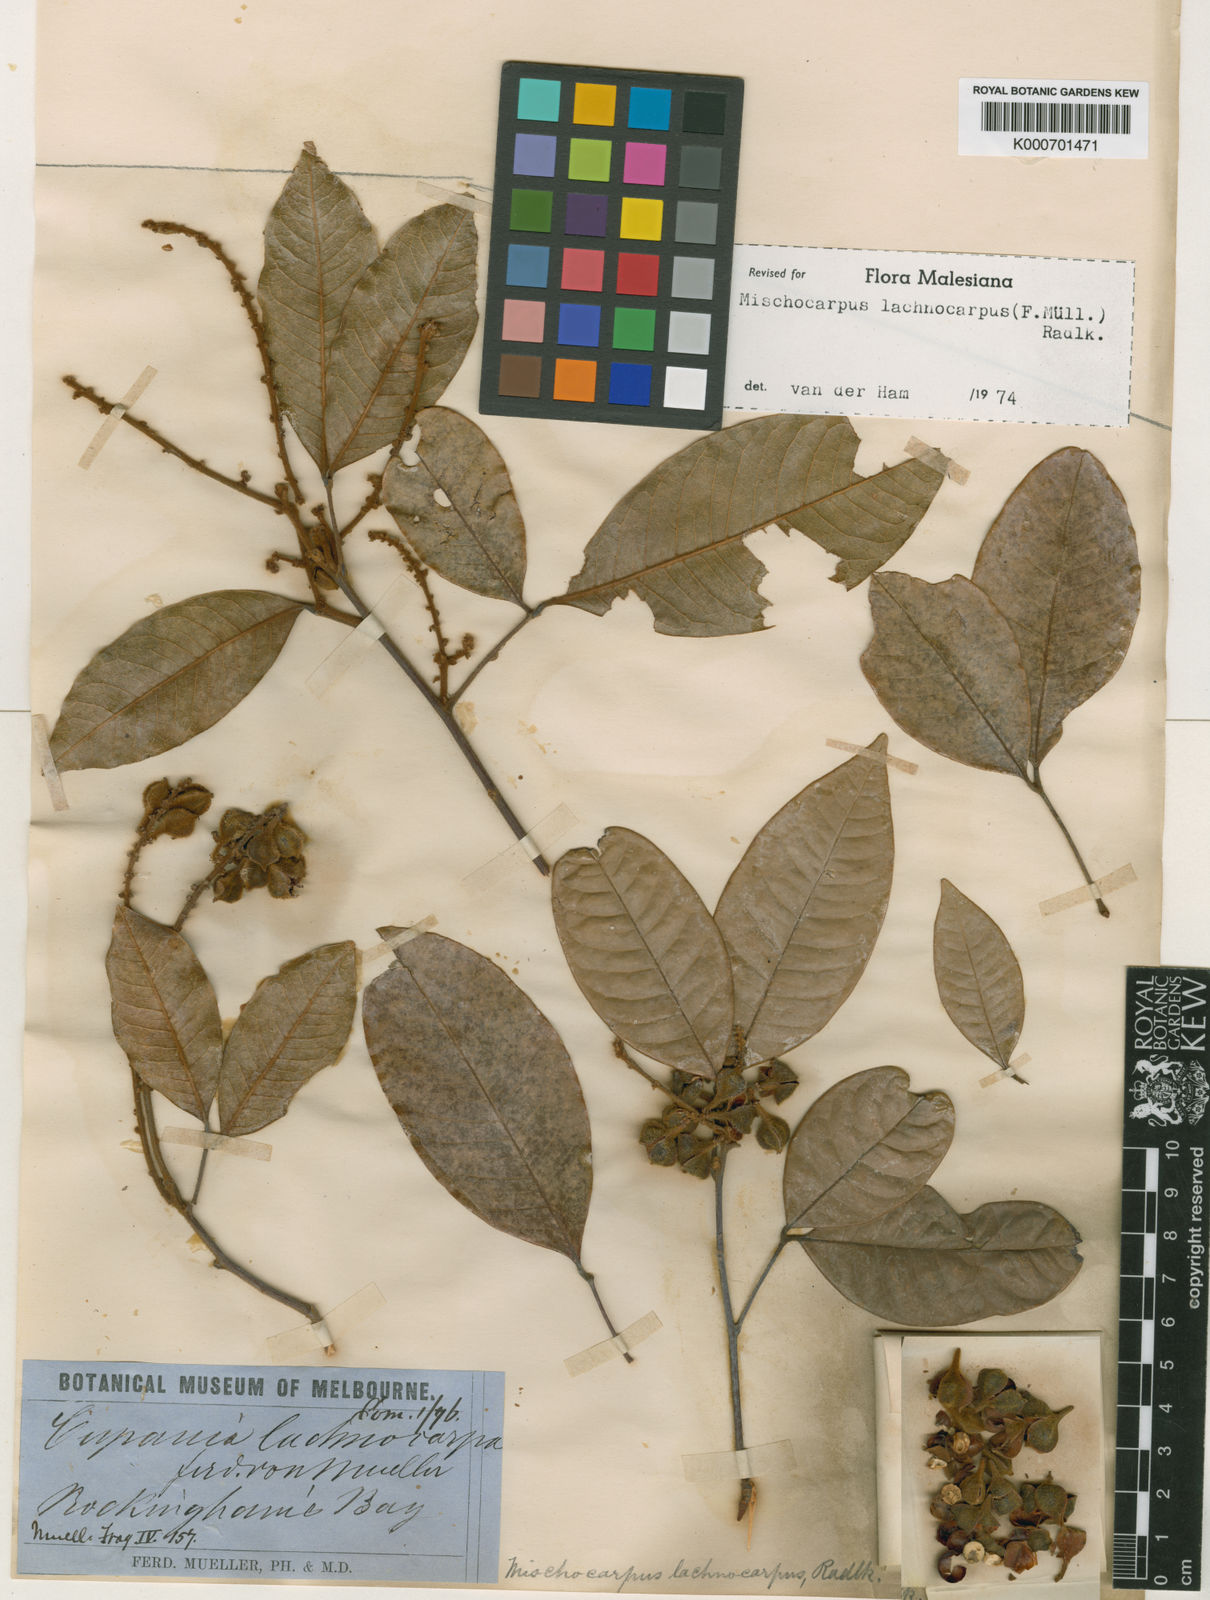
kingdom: Plantae
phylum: Tracheophyta
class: Magnoliopsida
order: Sapindales
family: Sapindaceae
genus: Mischocarpus
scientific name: Mischocarpus lachnocarpus
